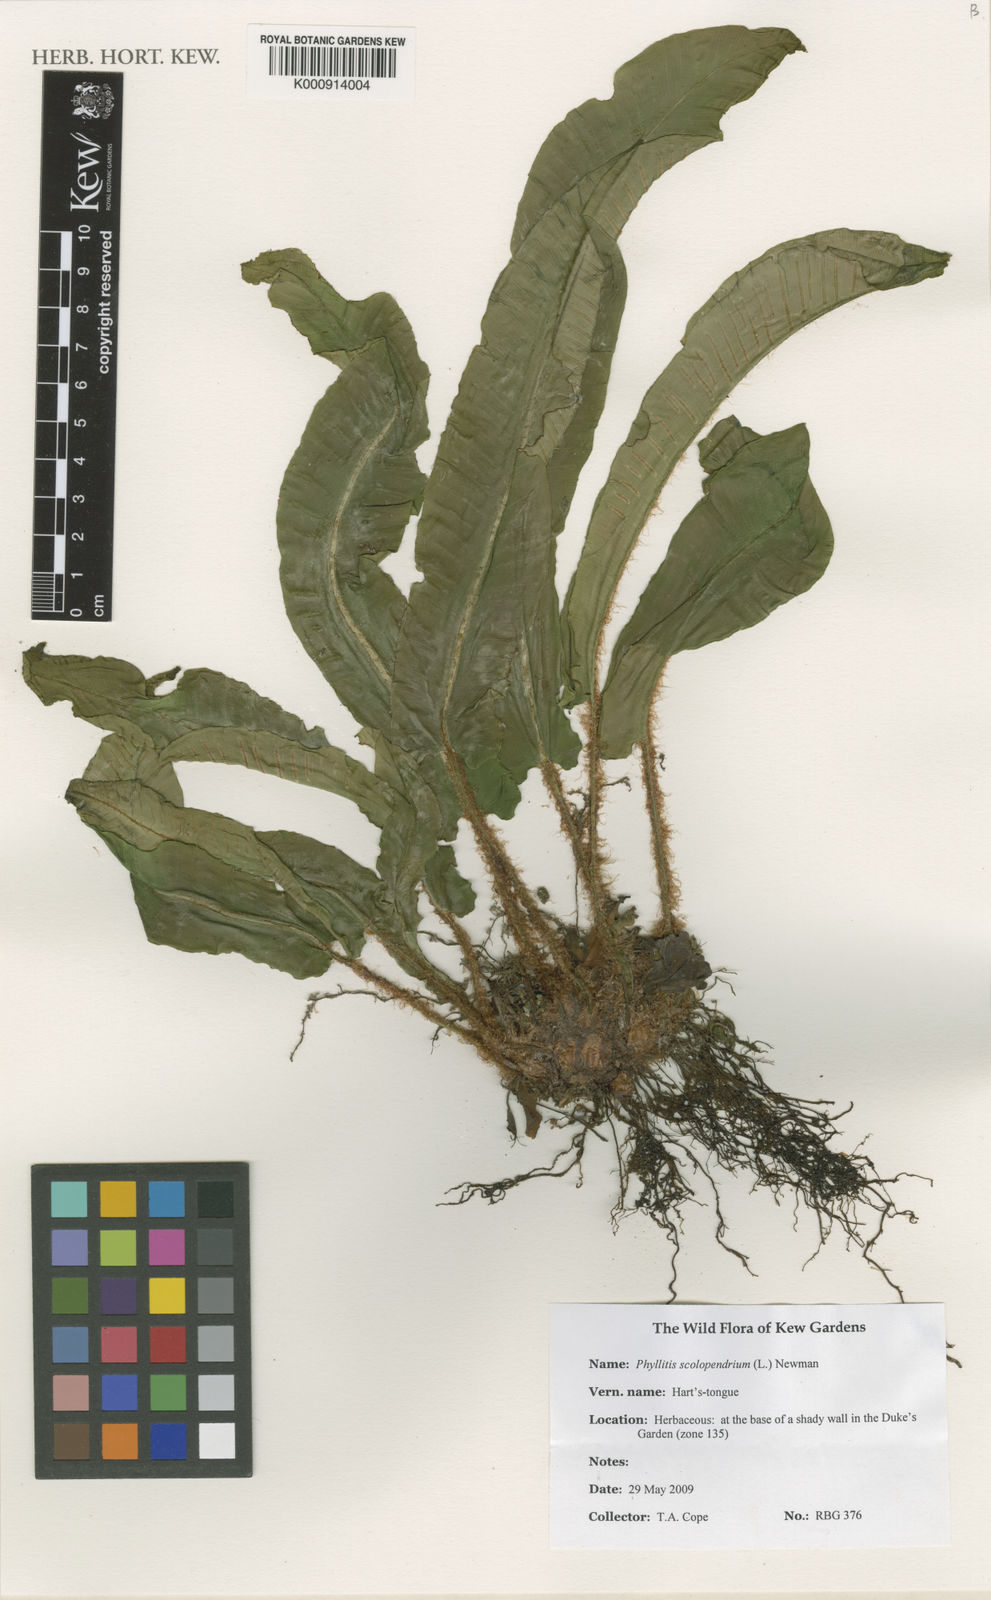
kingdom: Plantae
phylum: Tracheophyta
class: Polypodiopsida
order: Polypodiales
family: Aspleniaceae
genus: Asplenium
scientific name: Asplenium scolopendrium
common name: Hart's-tongue fern
